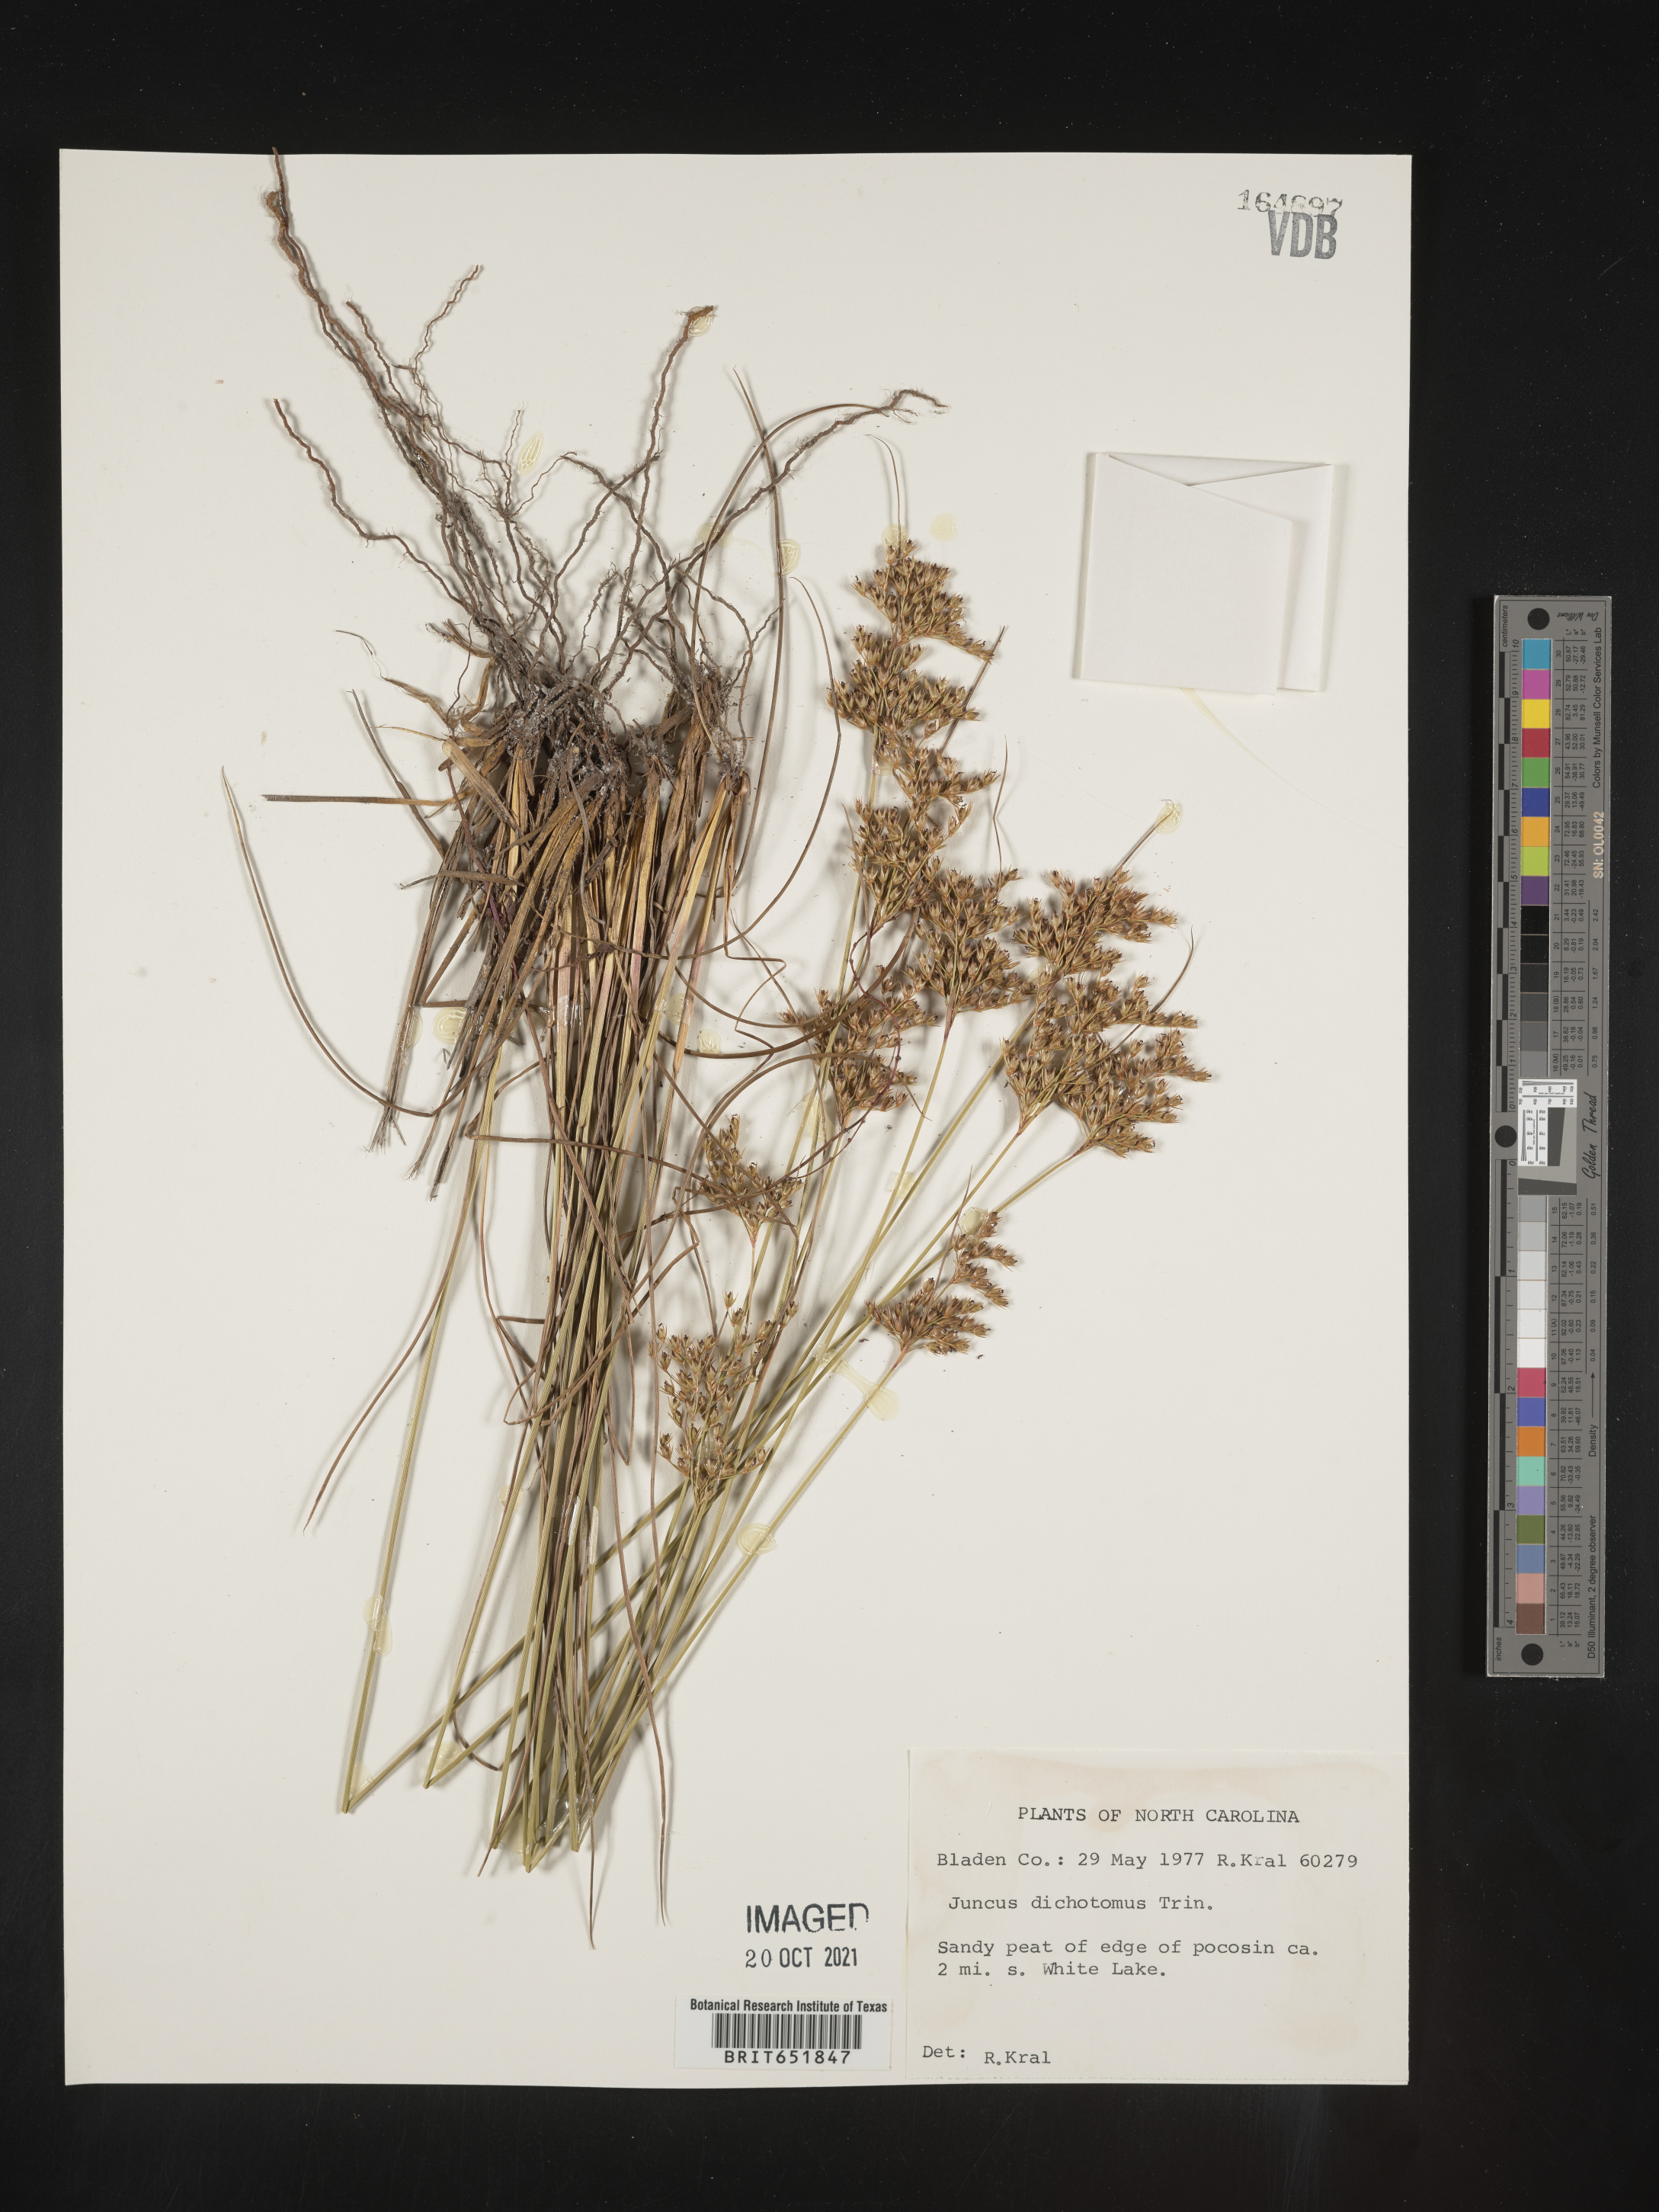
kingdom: Plantae
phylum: Tracheophyta
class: Liliopsida
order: Poales
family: Juncaceae
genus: Juncus
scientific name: Juncus dichotomus
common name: Forked rush
